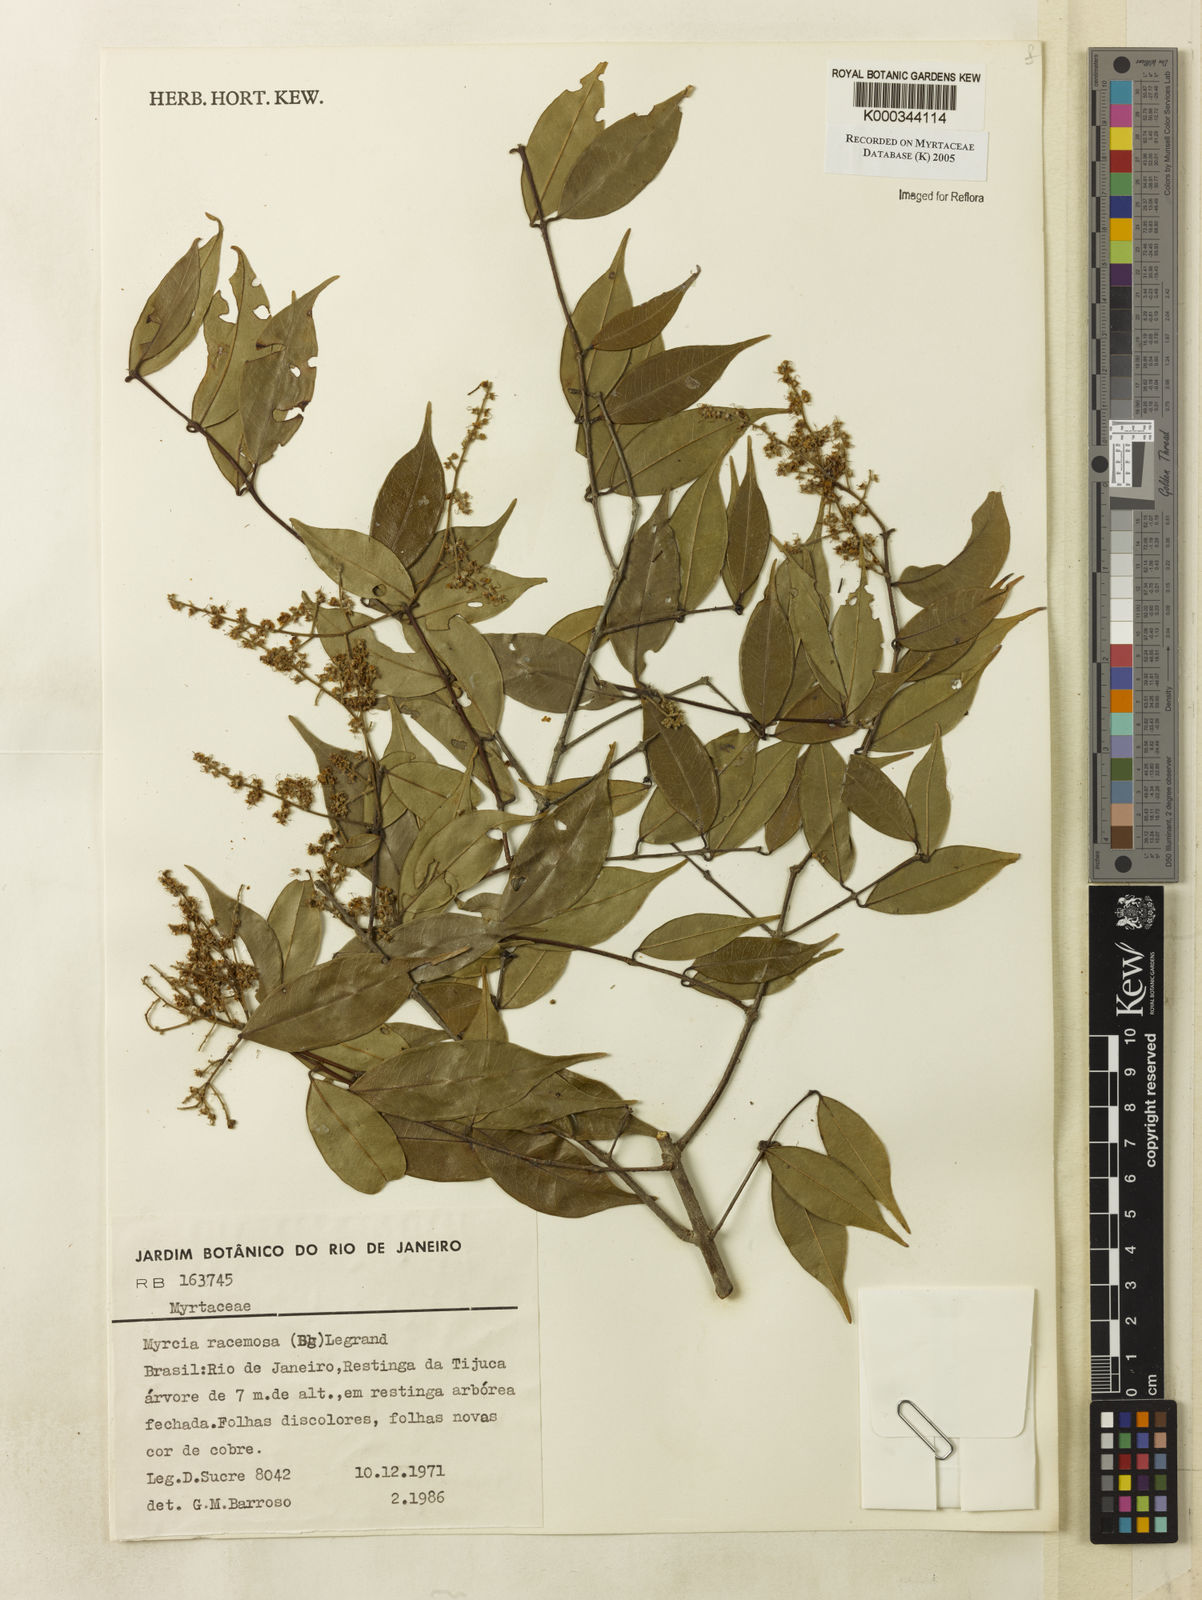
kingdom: Plantae
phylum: Tracheophyta
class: Magnoliopsida
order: Myrtales
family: Myrtaceae
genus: Myrcia
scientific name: Myrcia racemosa
